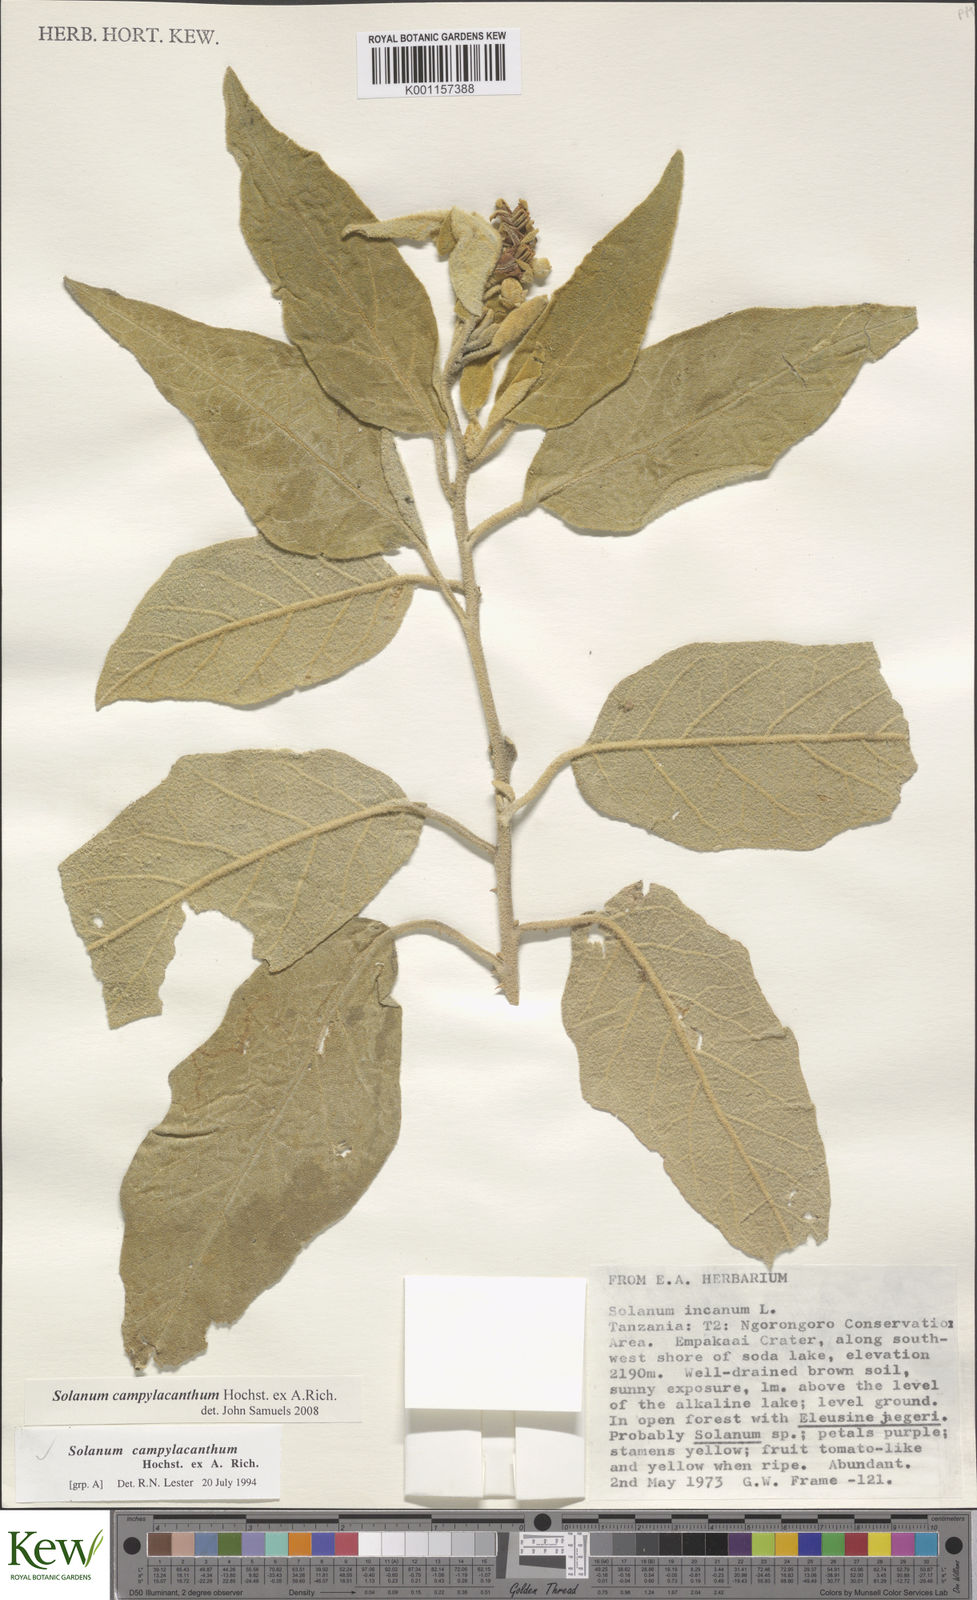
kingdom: Plantae
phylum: Tracheophyta
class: Magnoliopsida
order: Solanales
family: Solanaceae
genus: Solanum
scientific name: Solanum campylacanthum
